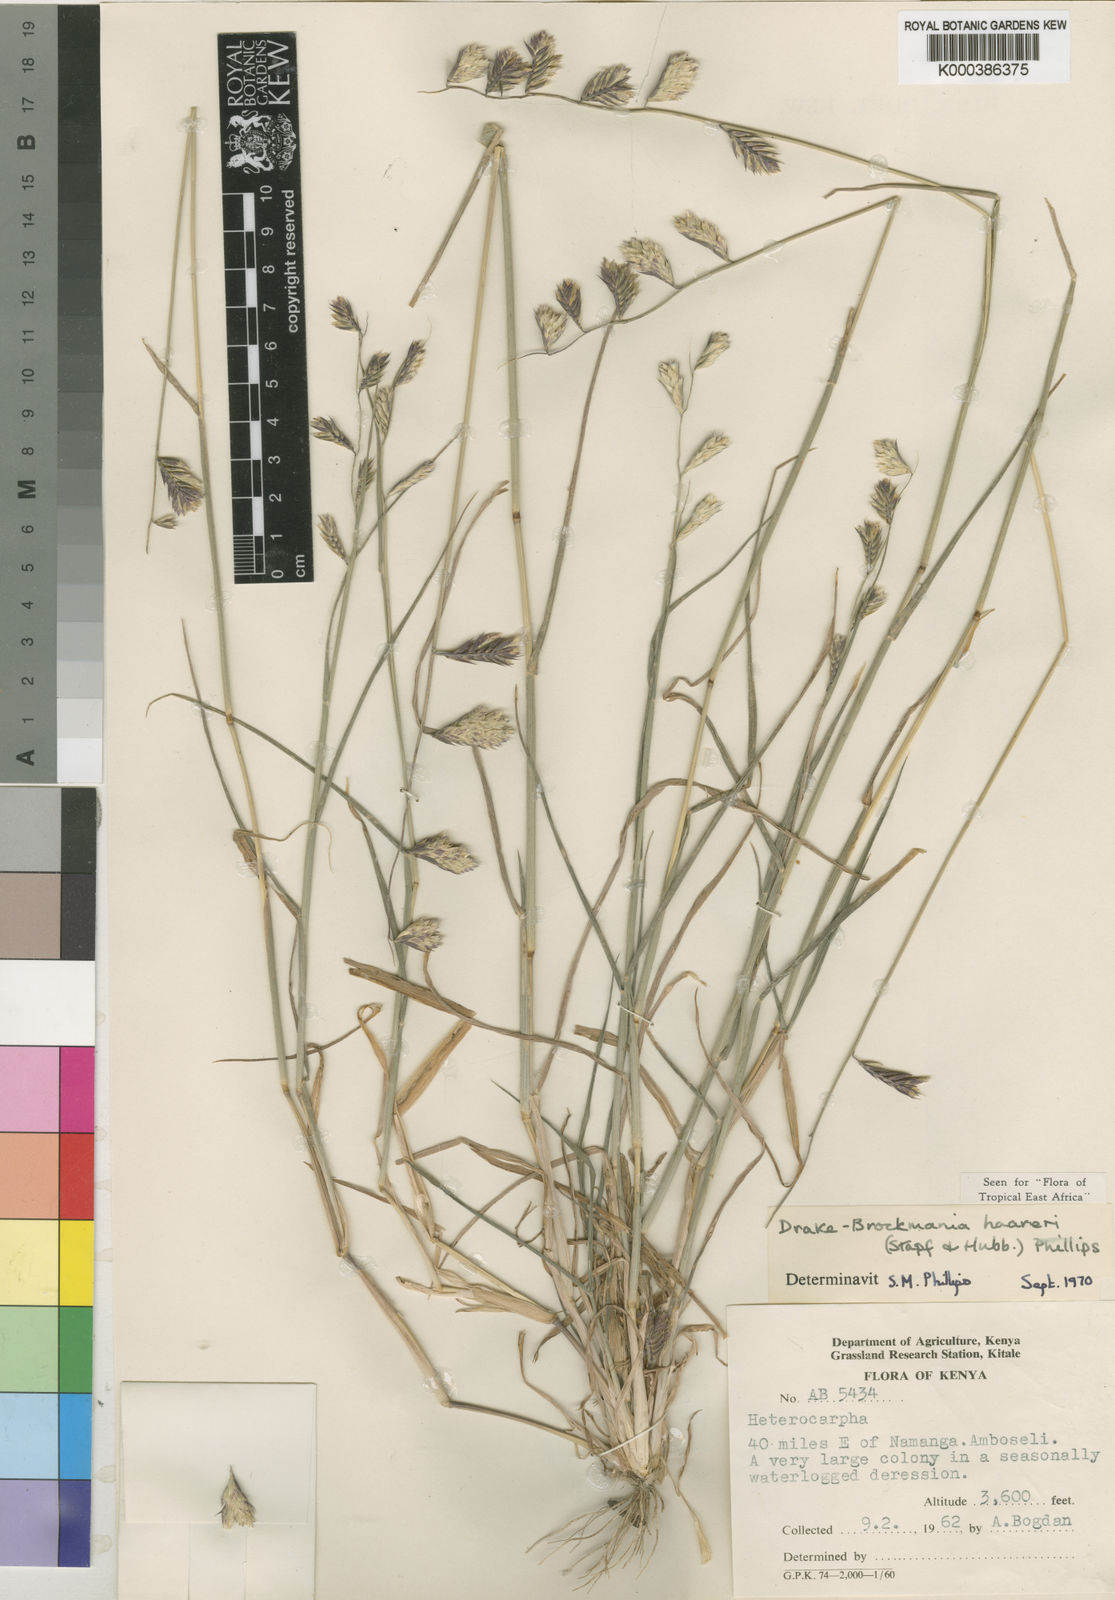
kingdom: Plantae
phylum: Tracheophyta
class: Liliopsida
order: Poales
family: Poaceae
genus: Dinebra
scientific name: Dinebra haareri
